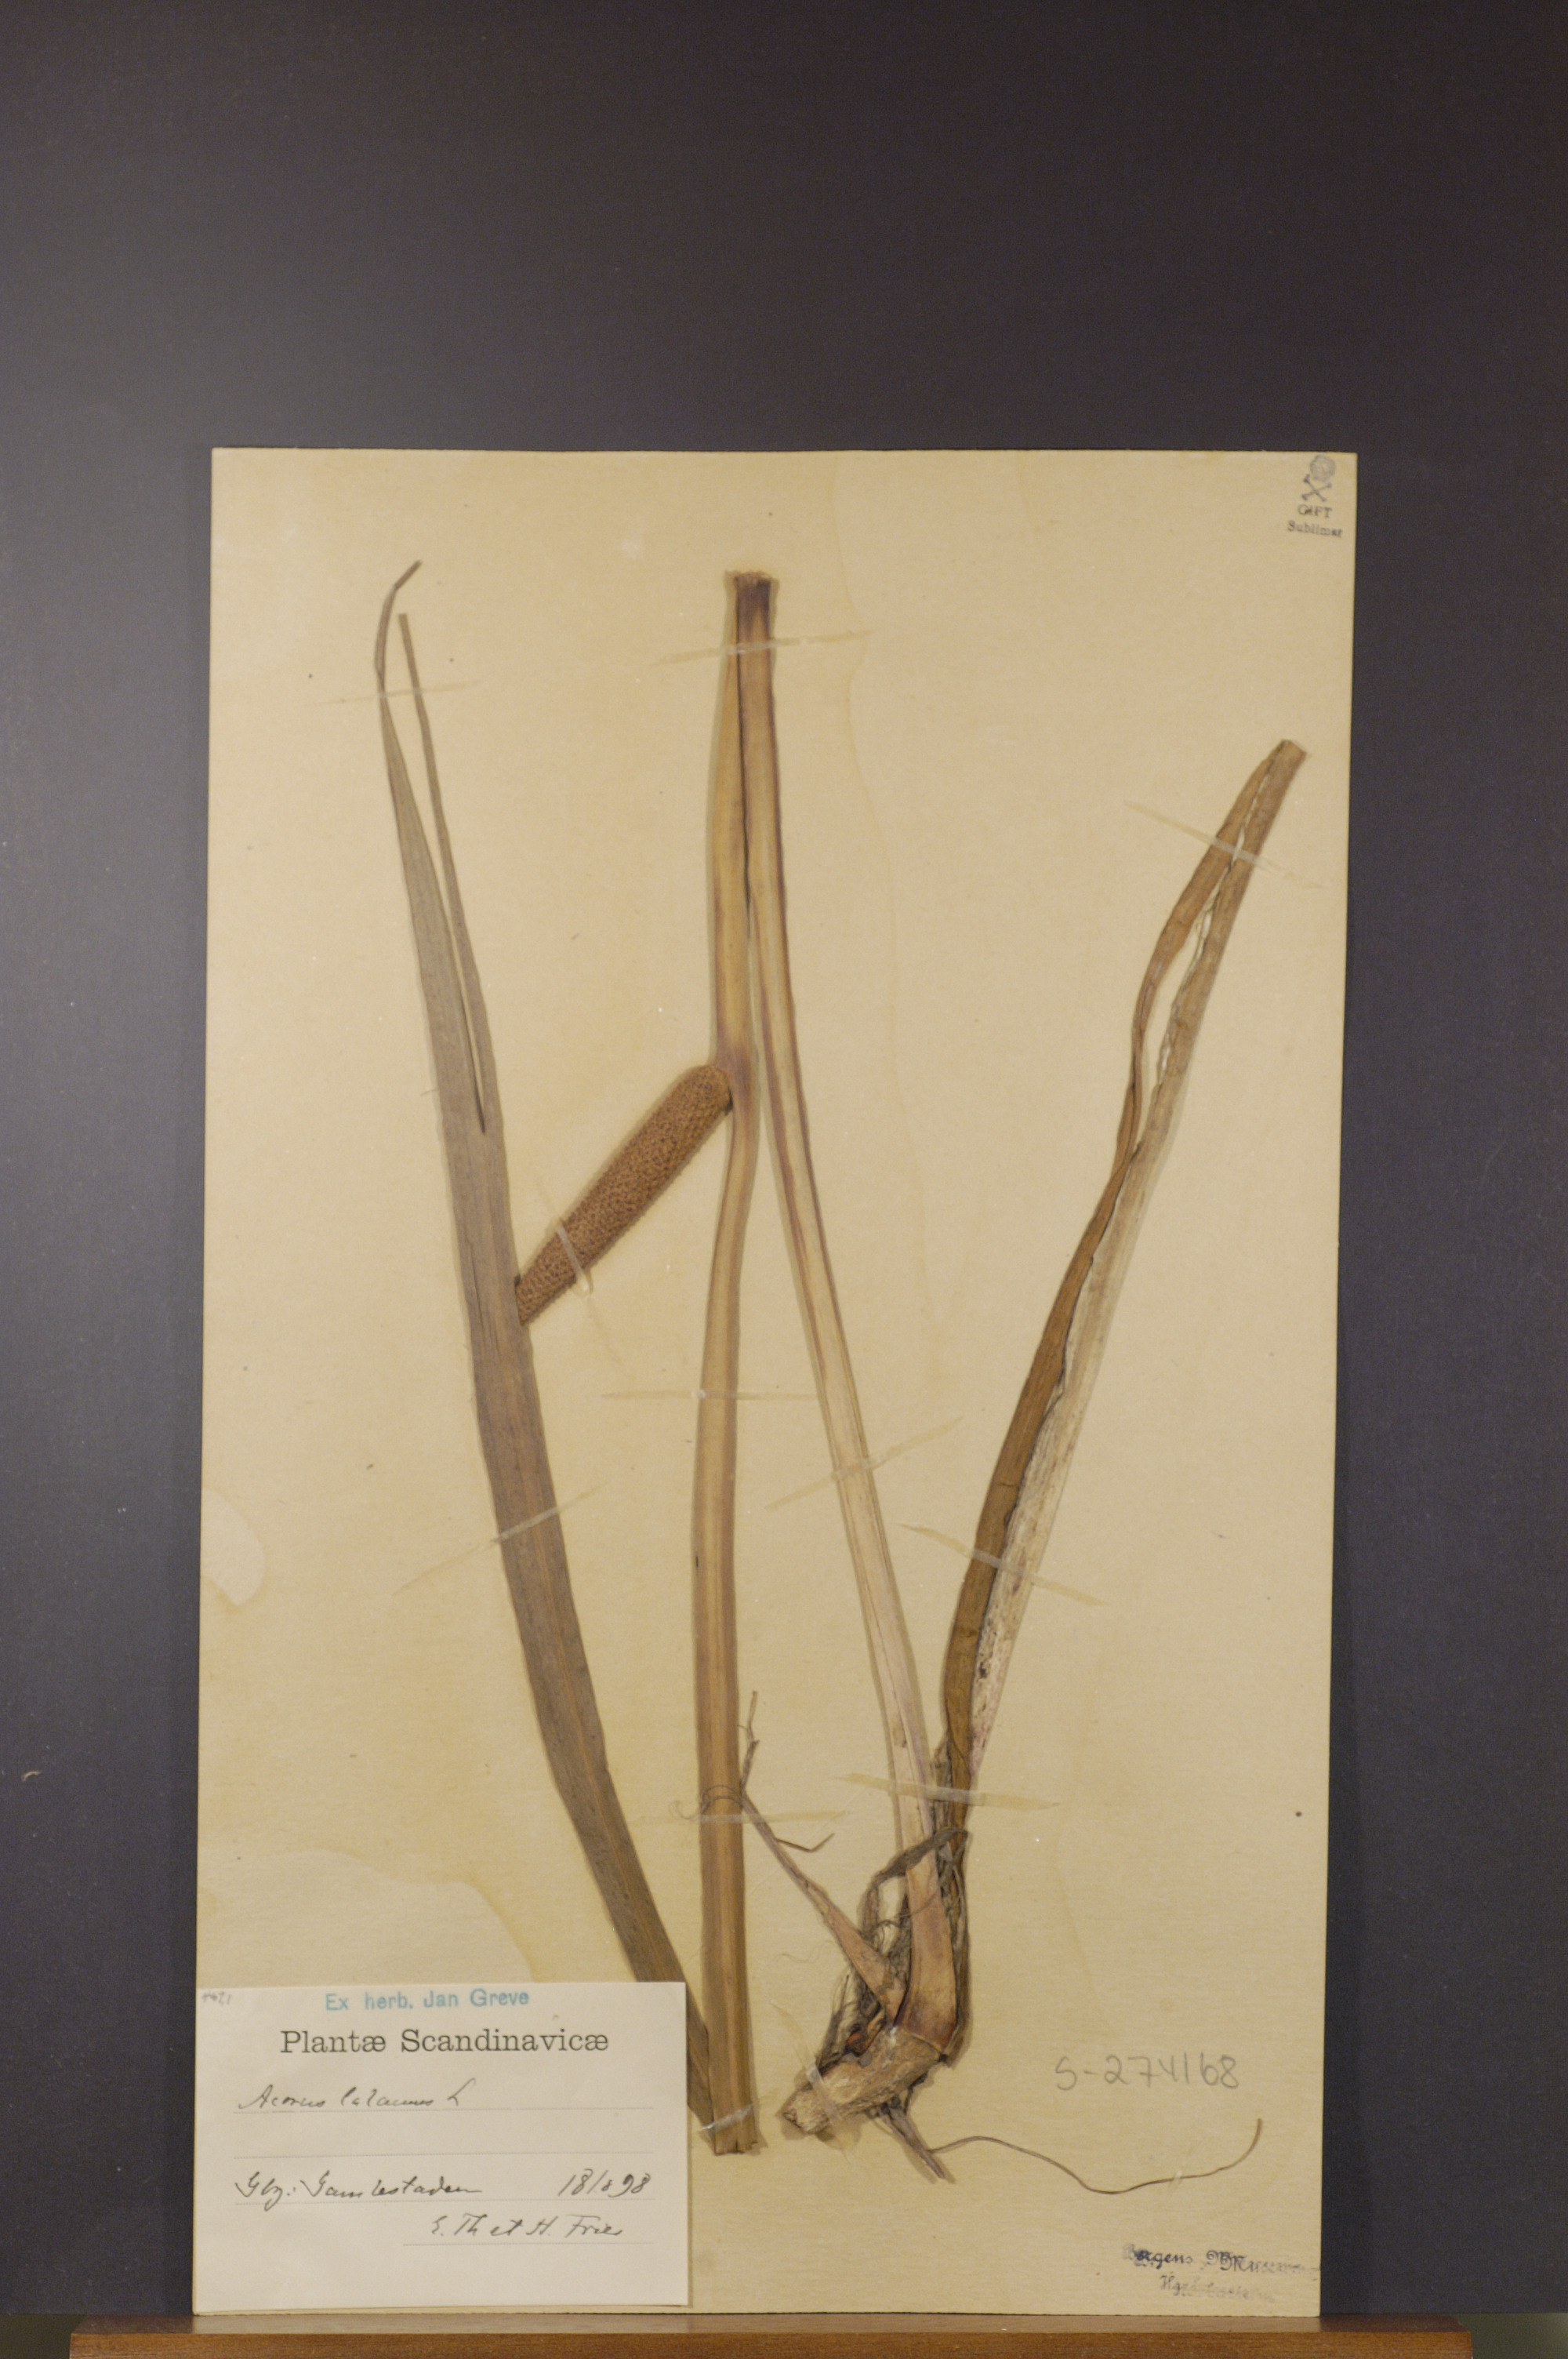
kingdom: Plantae
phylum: Tracheophyta
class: Liliopsida
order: Acorales
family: Acoraceae
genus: Acorus
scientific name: Acorus calamus
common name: Sweet-flag
